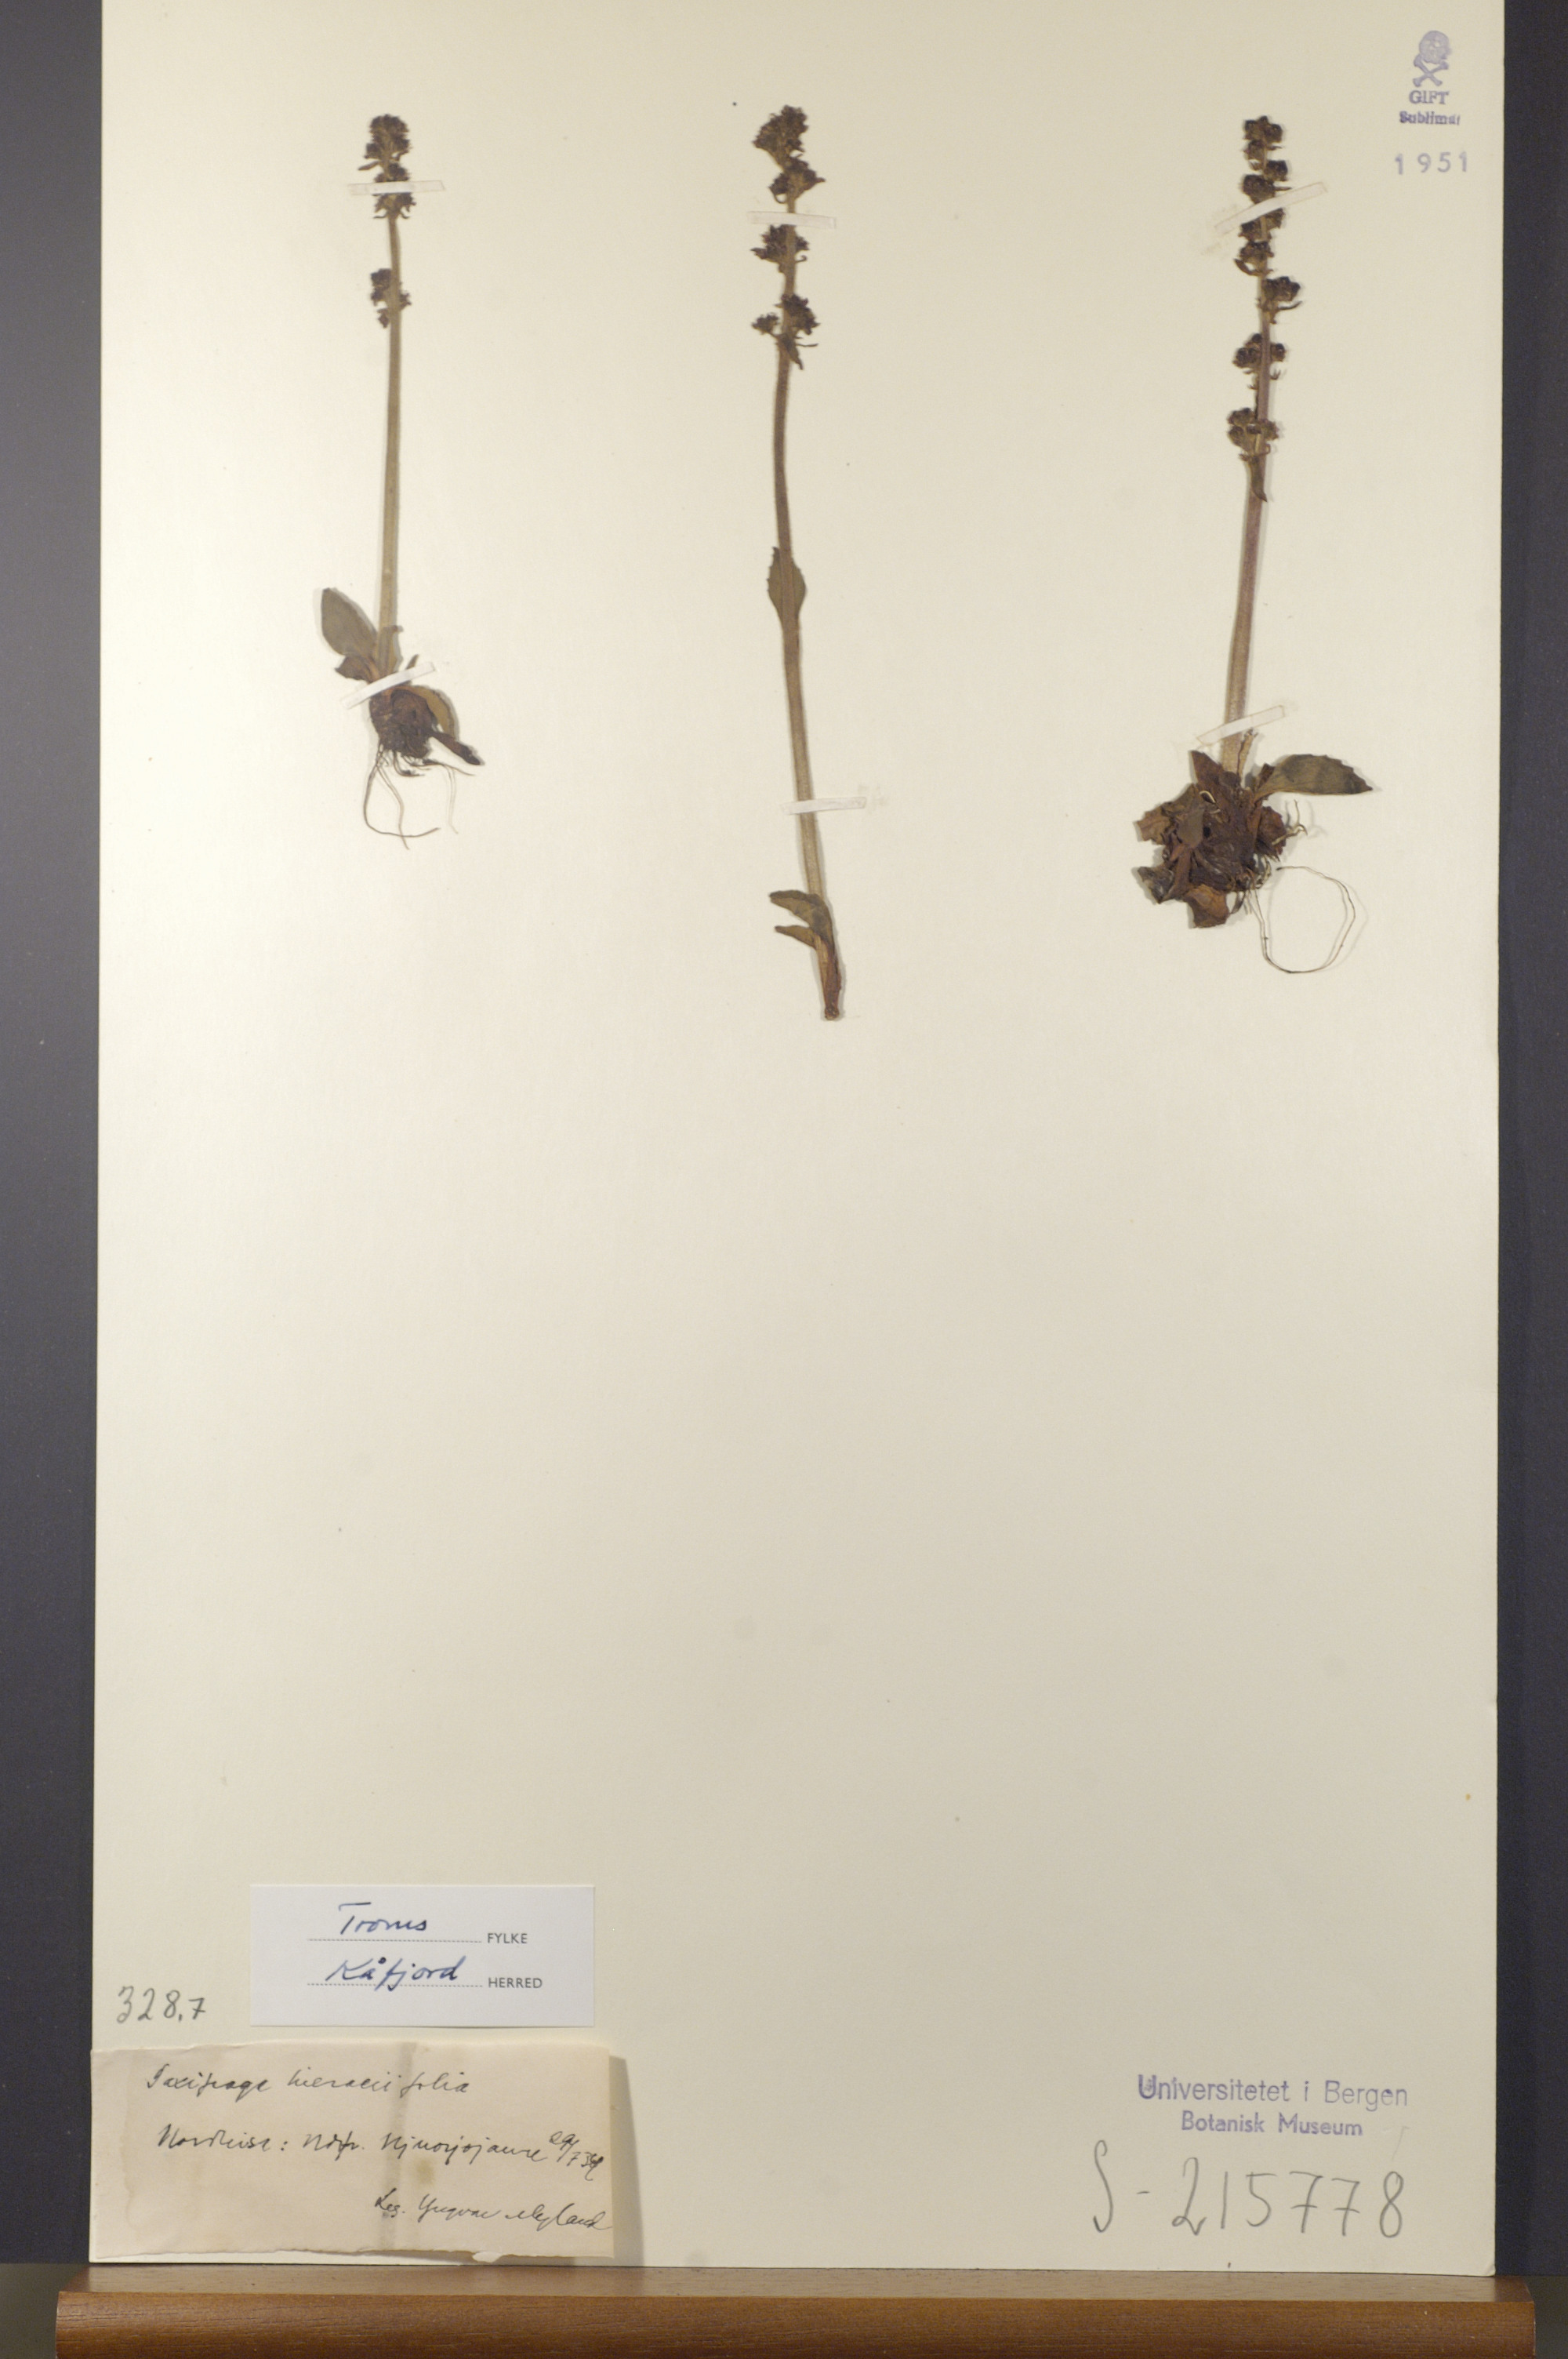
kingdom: Plantae
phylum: Tracheophyta
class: Magnoliopsida
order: Saxifragales
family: Saxifragaceae
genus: Micranthes
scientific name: Micranthes hieraciifolia
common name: Hawkweed-leaved saxifrage
